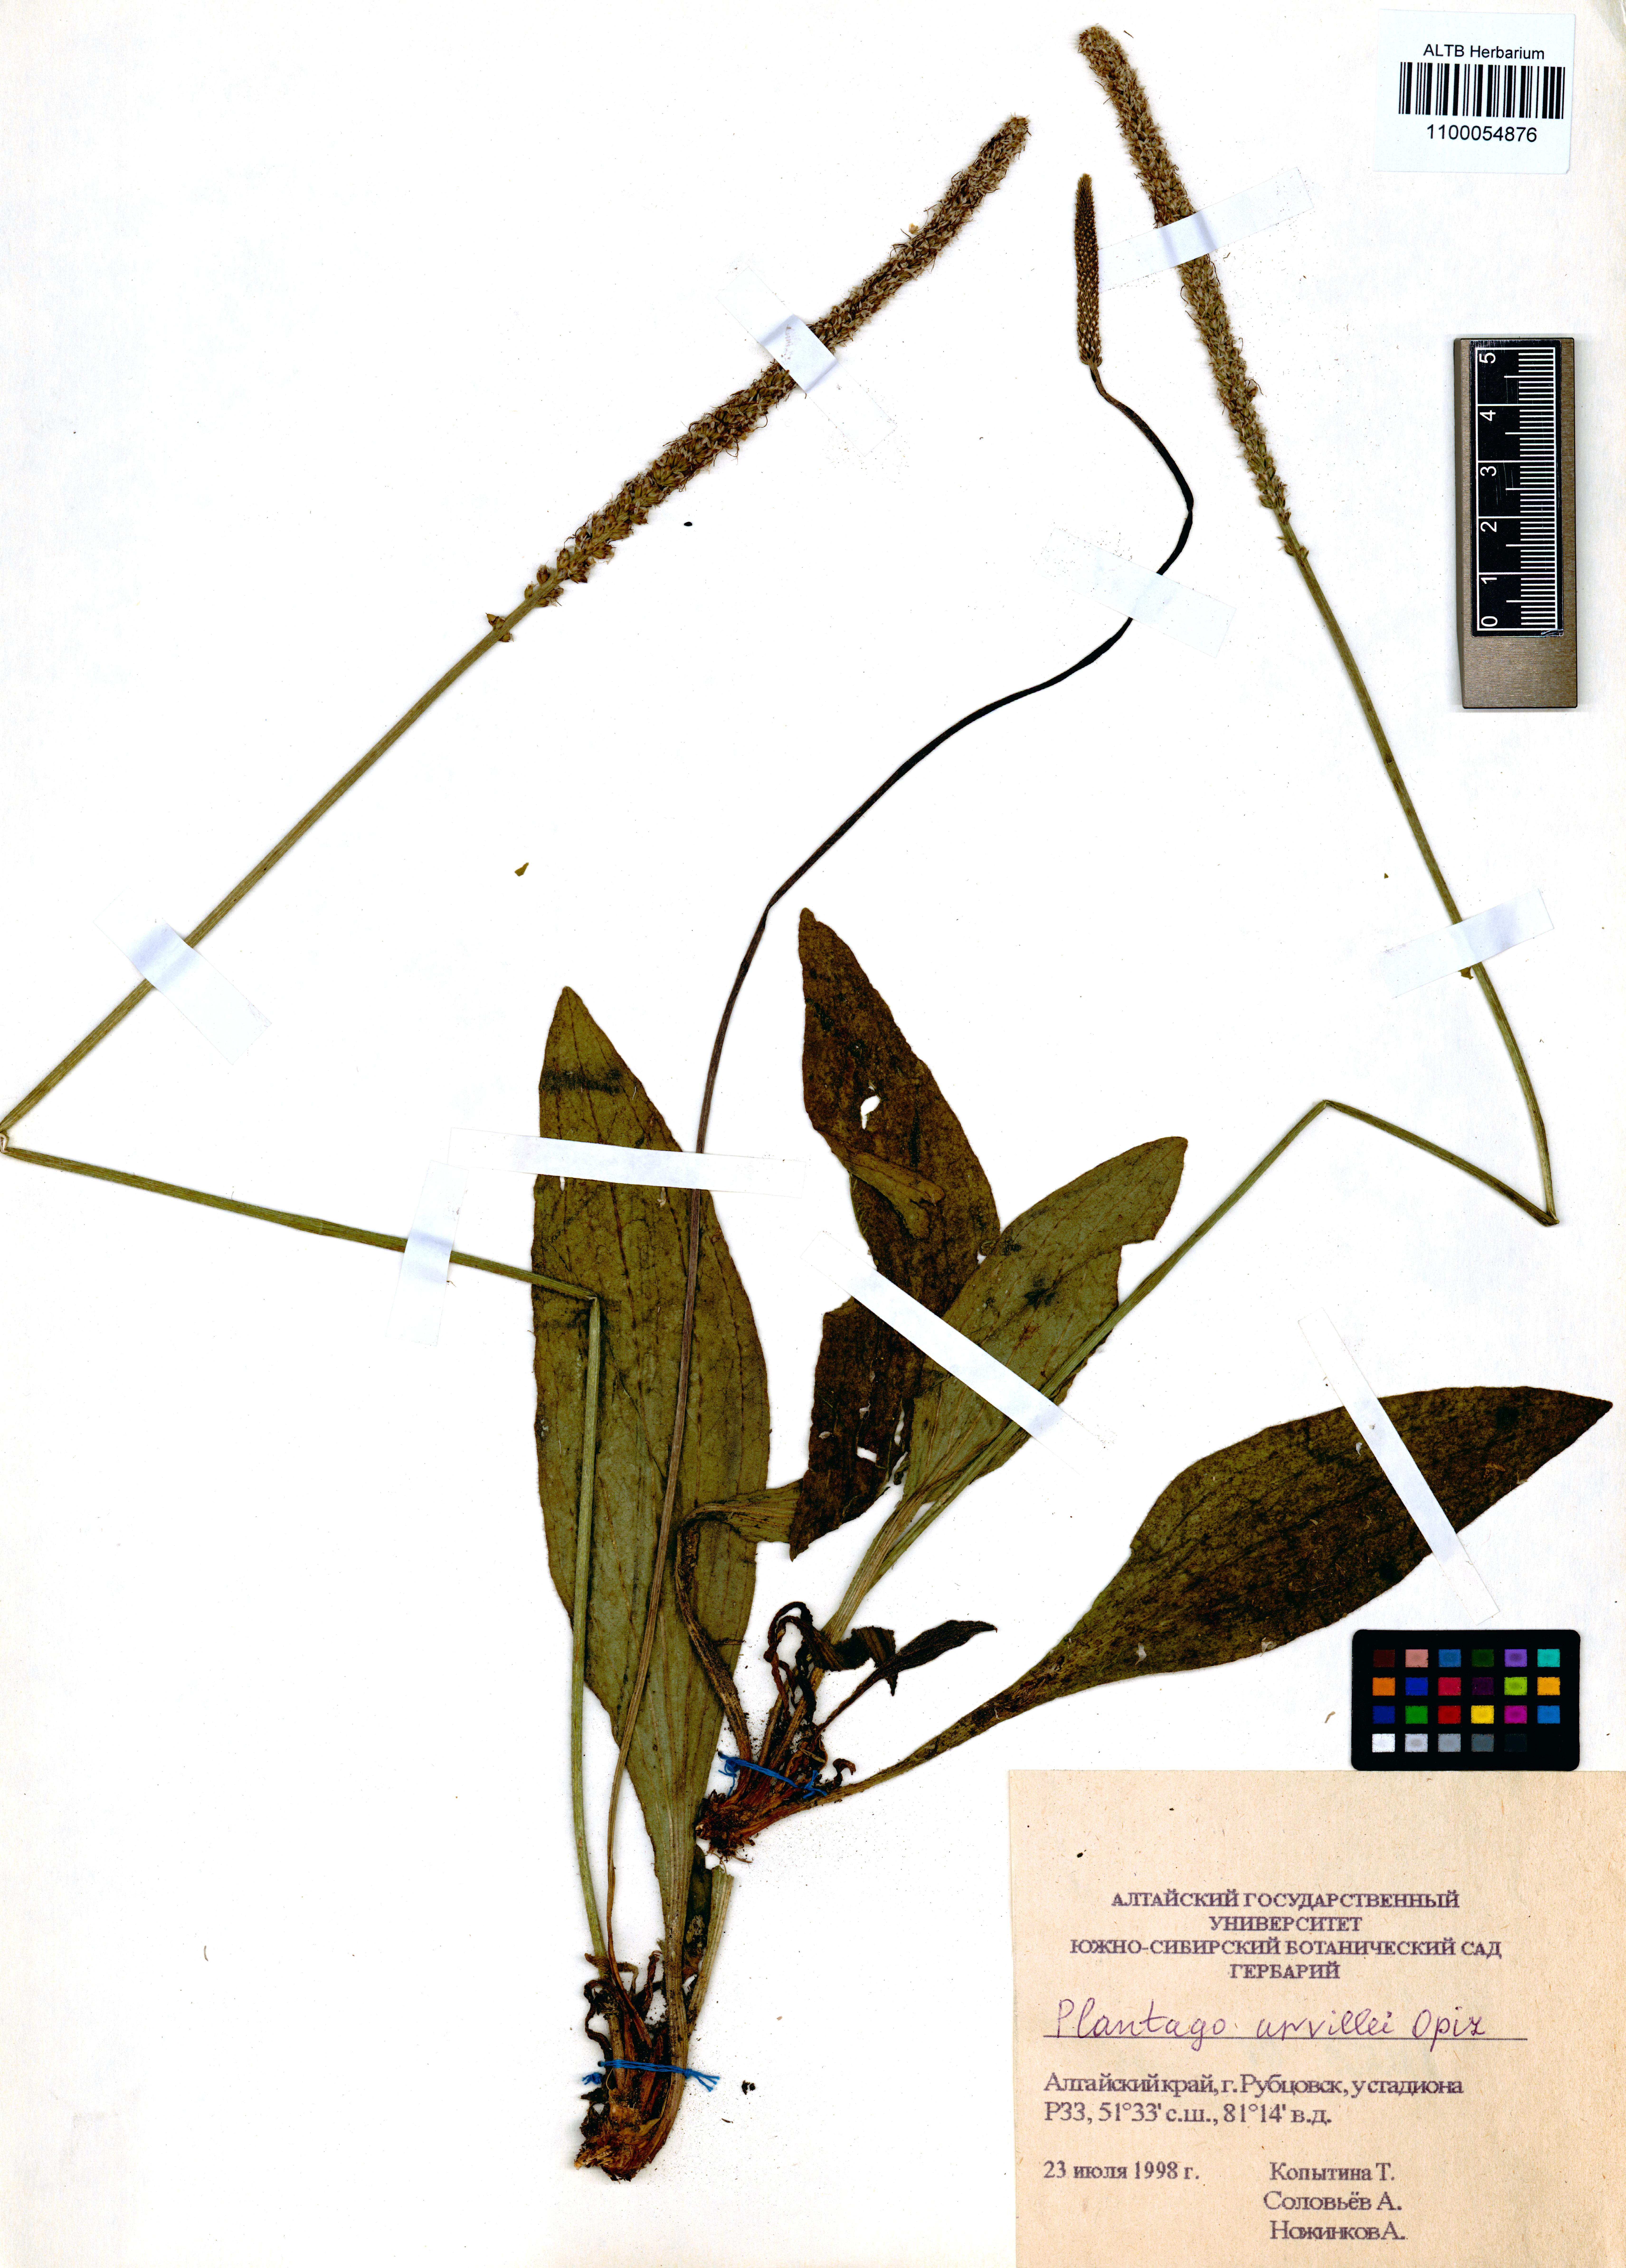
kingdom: Plantae
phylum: Tracheophyta
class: Magnoliopsida
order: Lamiales
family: Plantaginaceae
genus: Plantago
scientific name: Plantago urvillei
